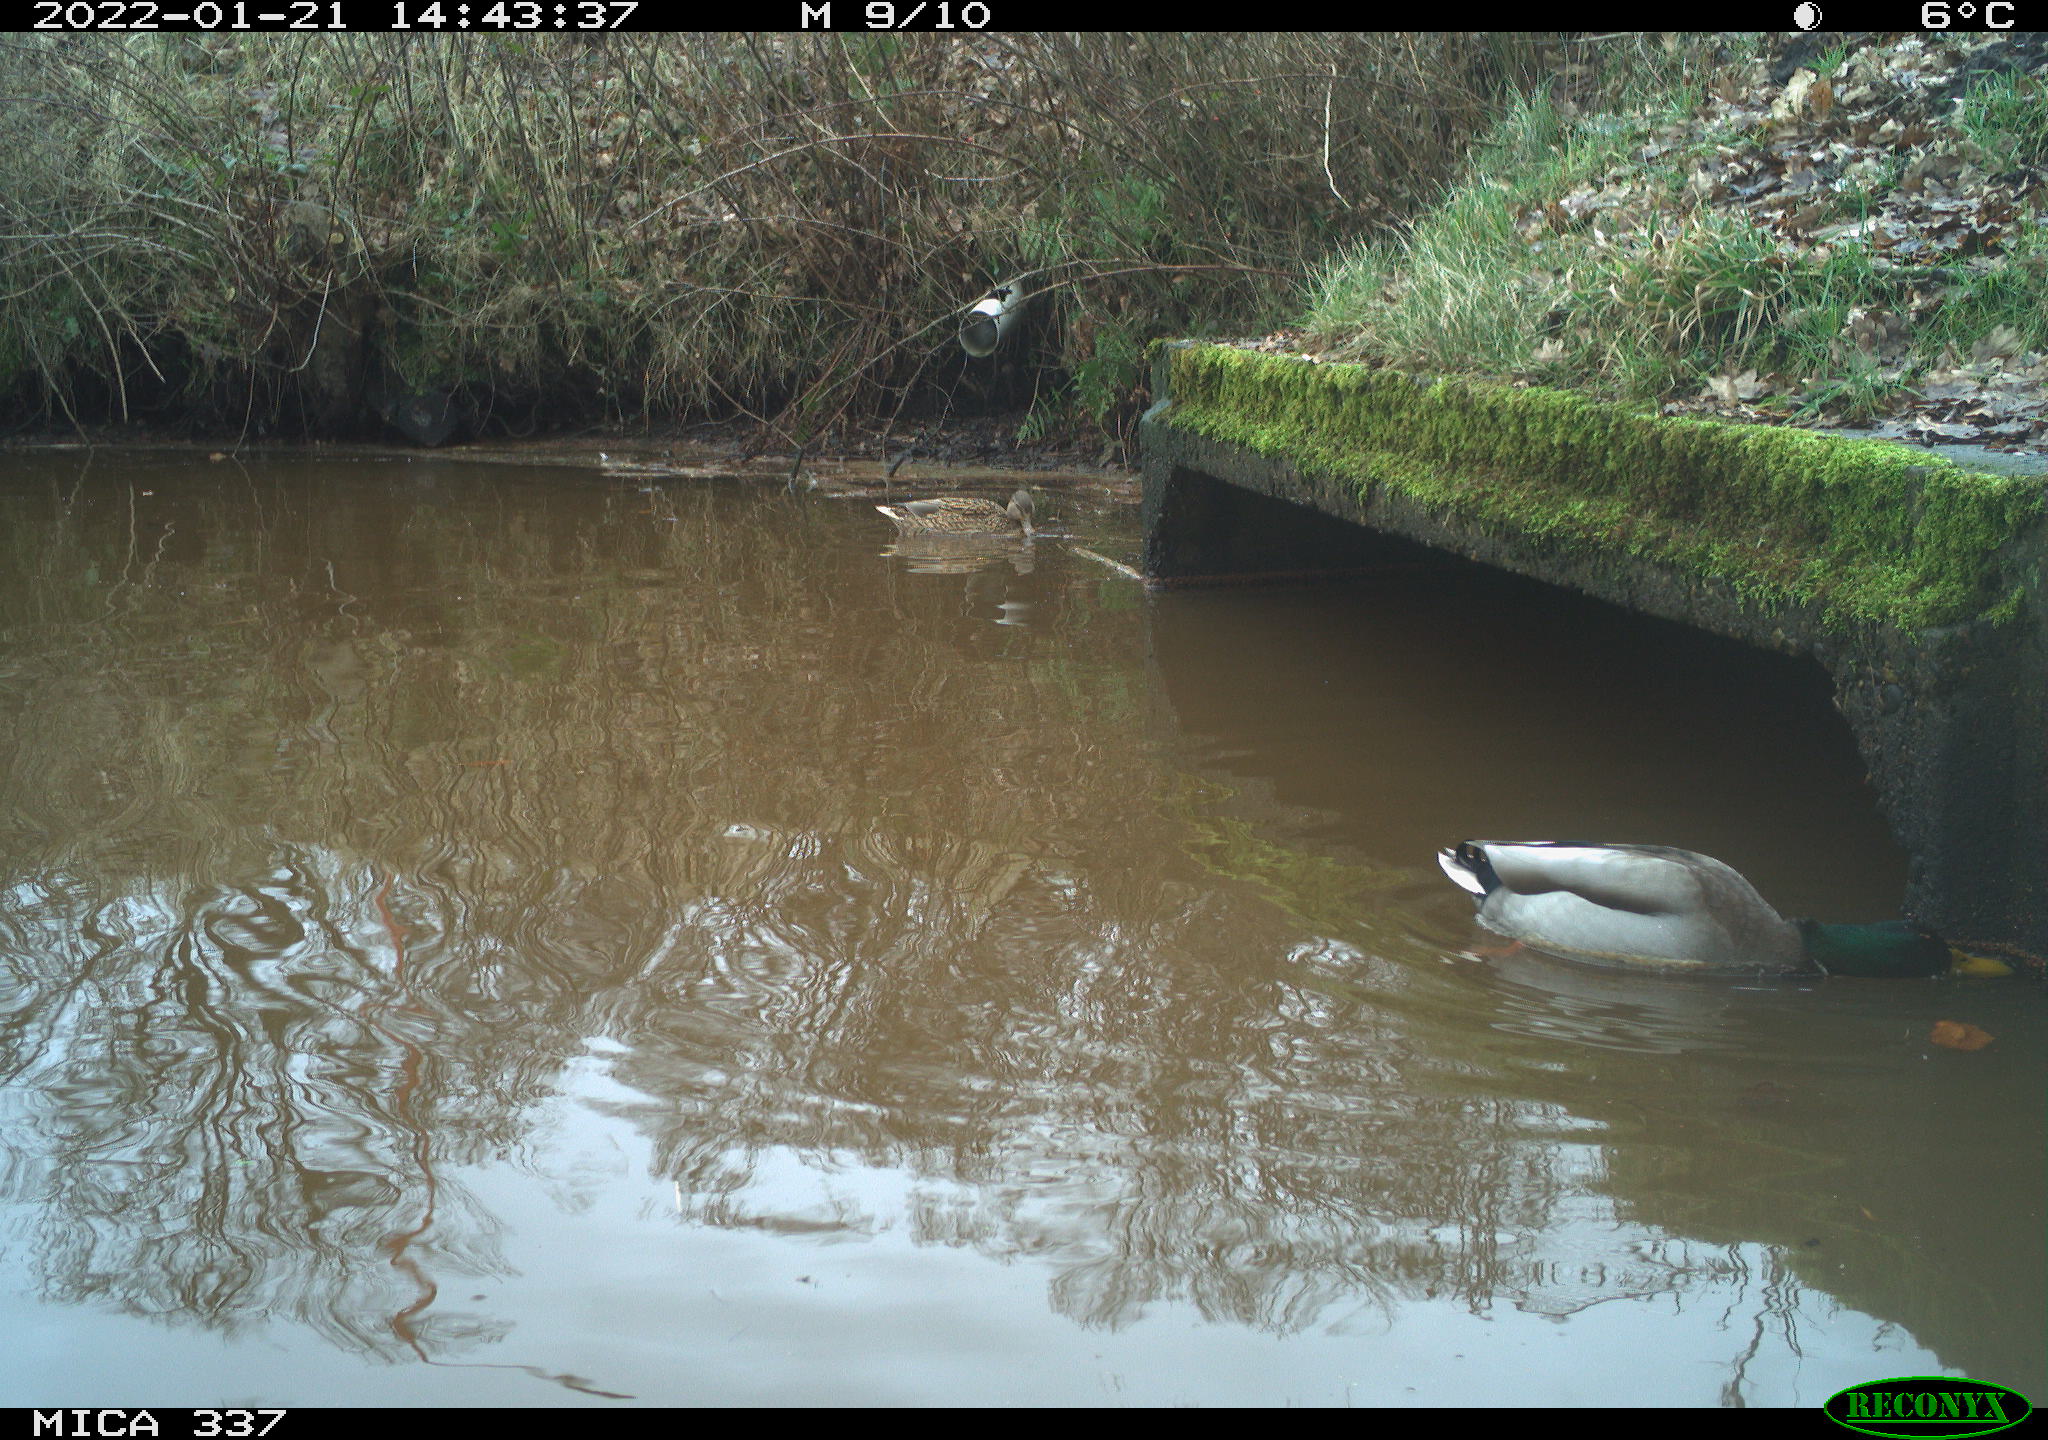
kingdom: Animalia
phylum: Chordata
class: Aves
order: Anseriformes
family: Anatidae
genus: Anas
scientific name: Anas platyrhynchos
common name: Mallard
